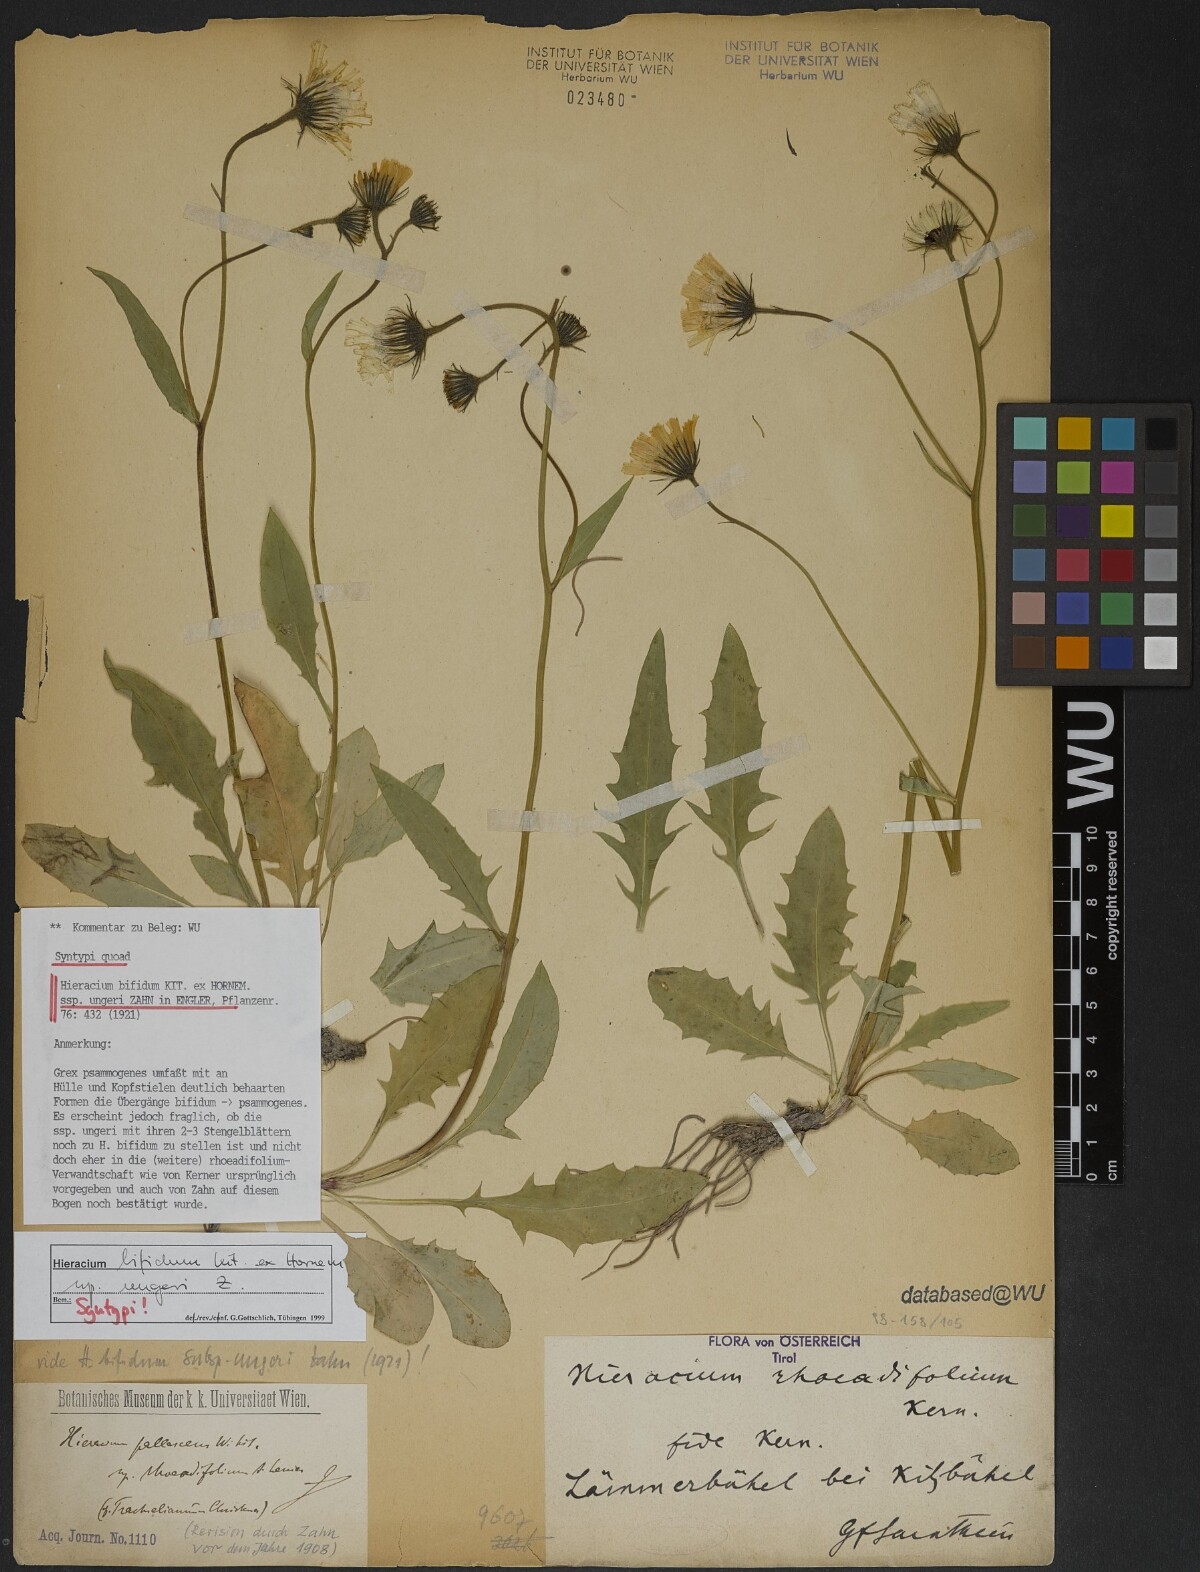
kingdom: Plantae
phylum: Tracheophyta
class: Magnoliopsida
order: Asterales
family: Asteraceae
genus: Hieracium
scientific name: Hieracium bifidum
